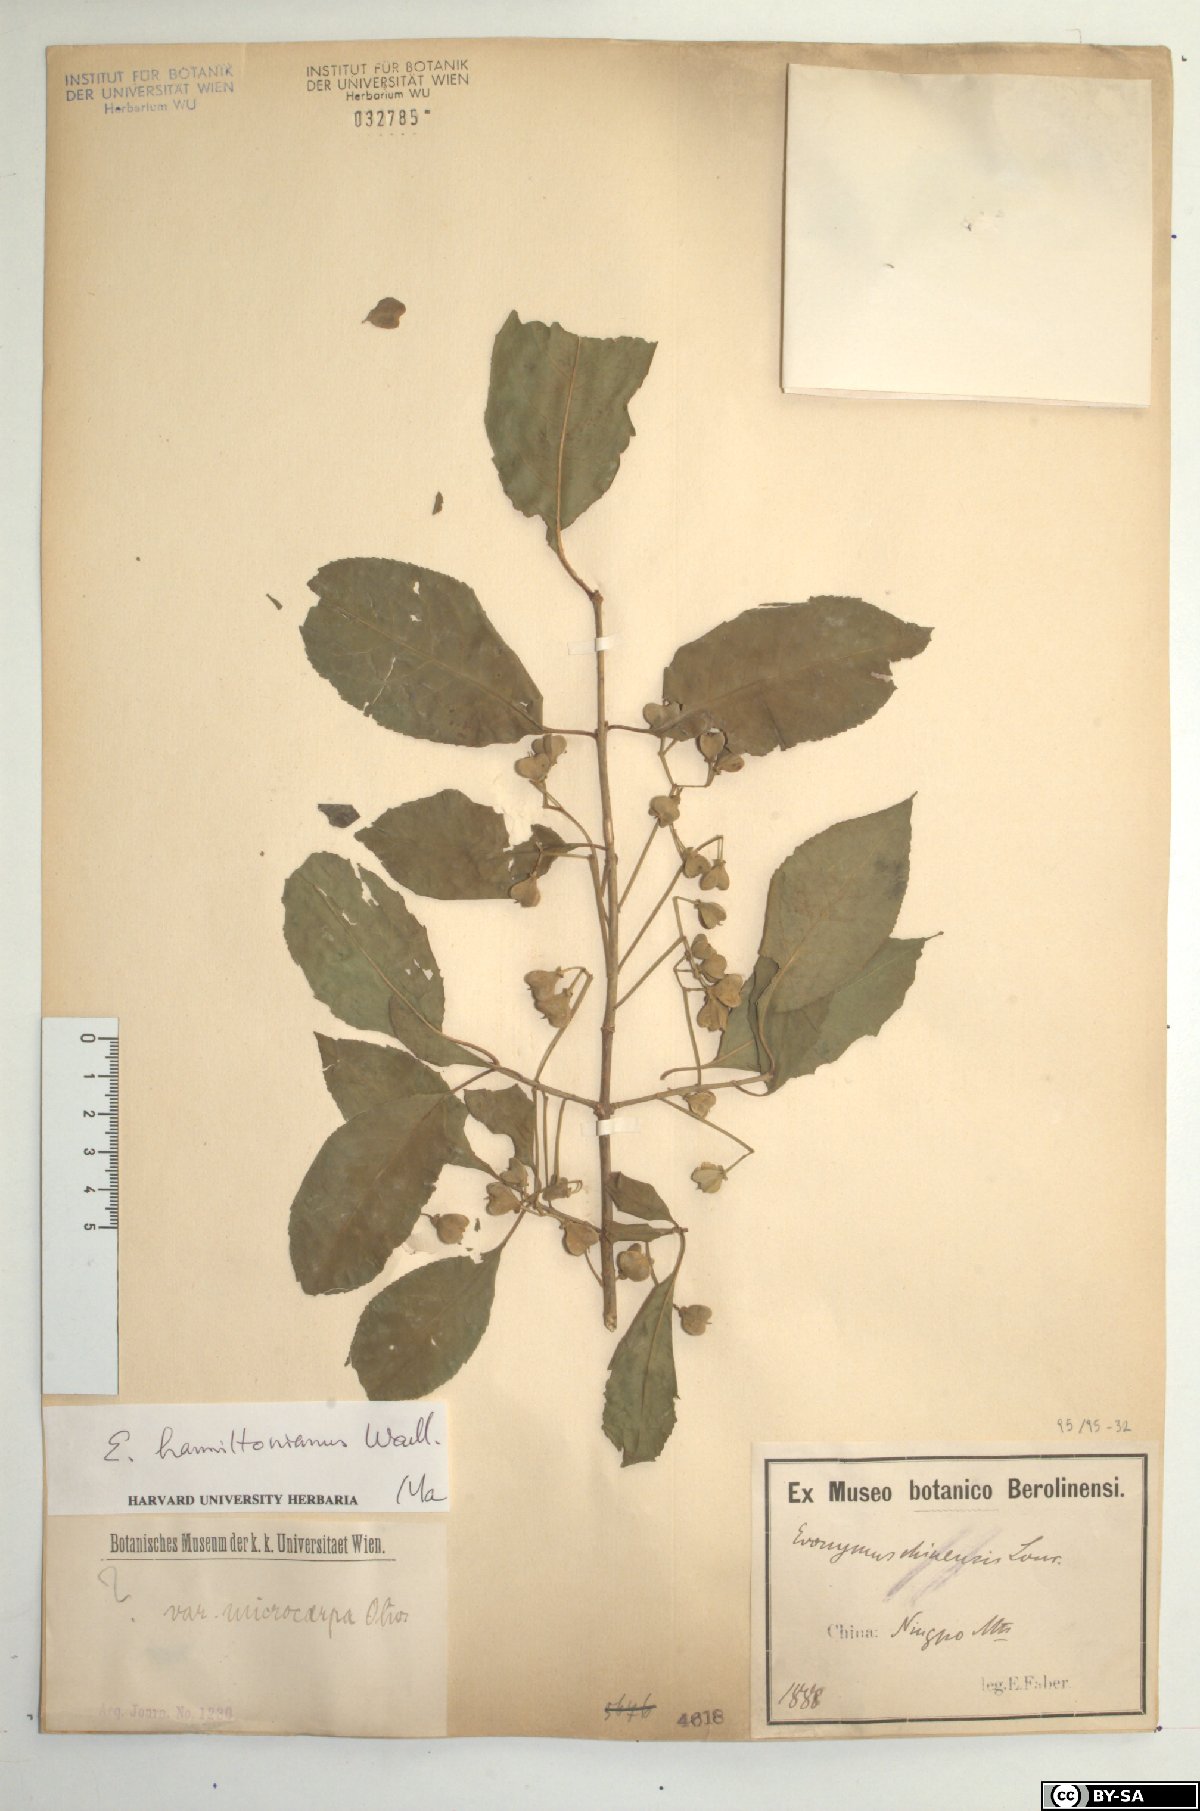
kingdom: Plantae
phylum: Tracheophyta
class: Magnoliopsida
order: Celastrales
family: Celastraceae
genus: Euonymus
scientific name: Euonymus hamiltonianus
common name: Hamilton's spindletree
